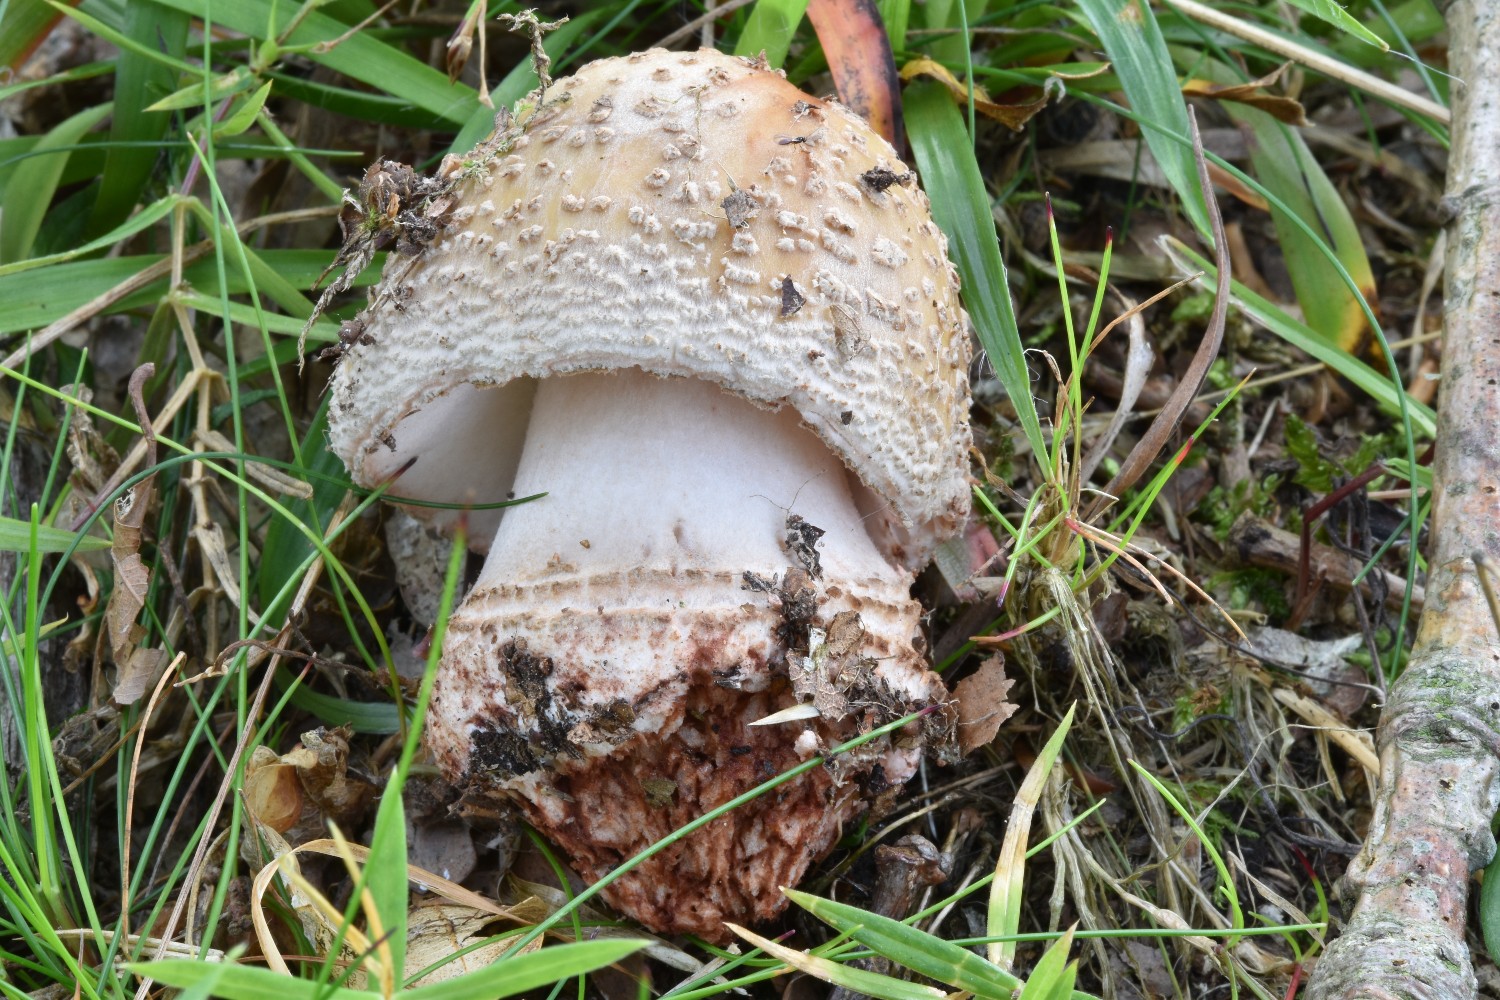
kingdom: Fungi
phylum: Basidiomycota
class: Agaricomycetes
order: Agaricales
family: Amanitaceae
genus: Amanita
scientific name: Amanita rubescens
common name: rødmende fluesvamp
